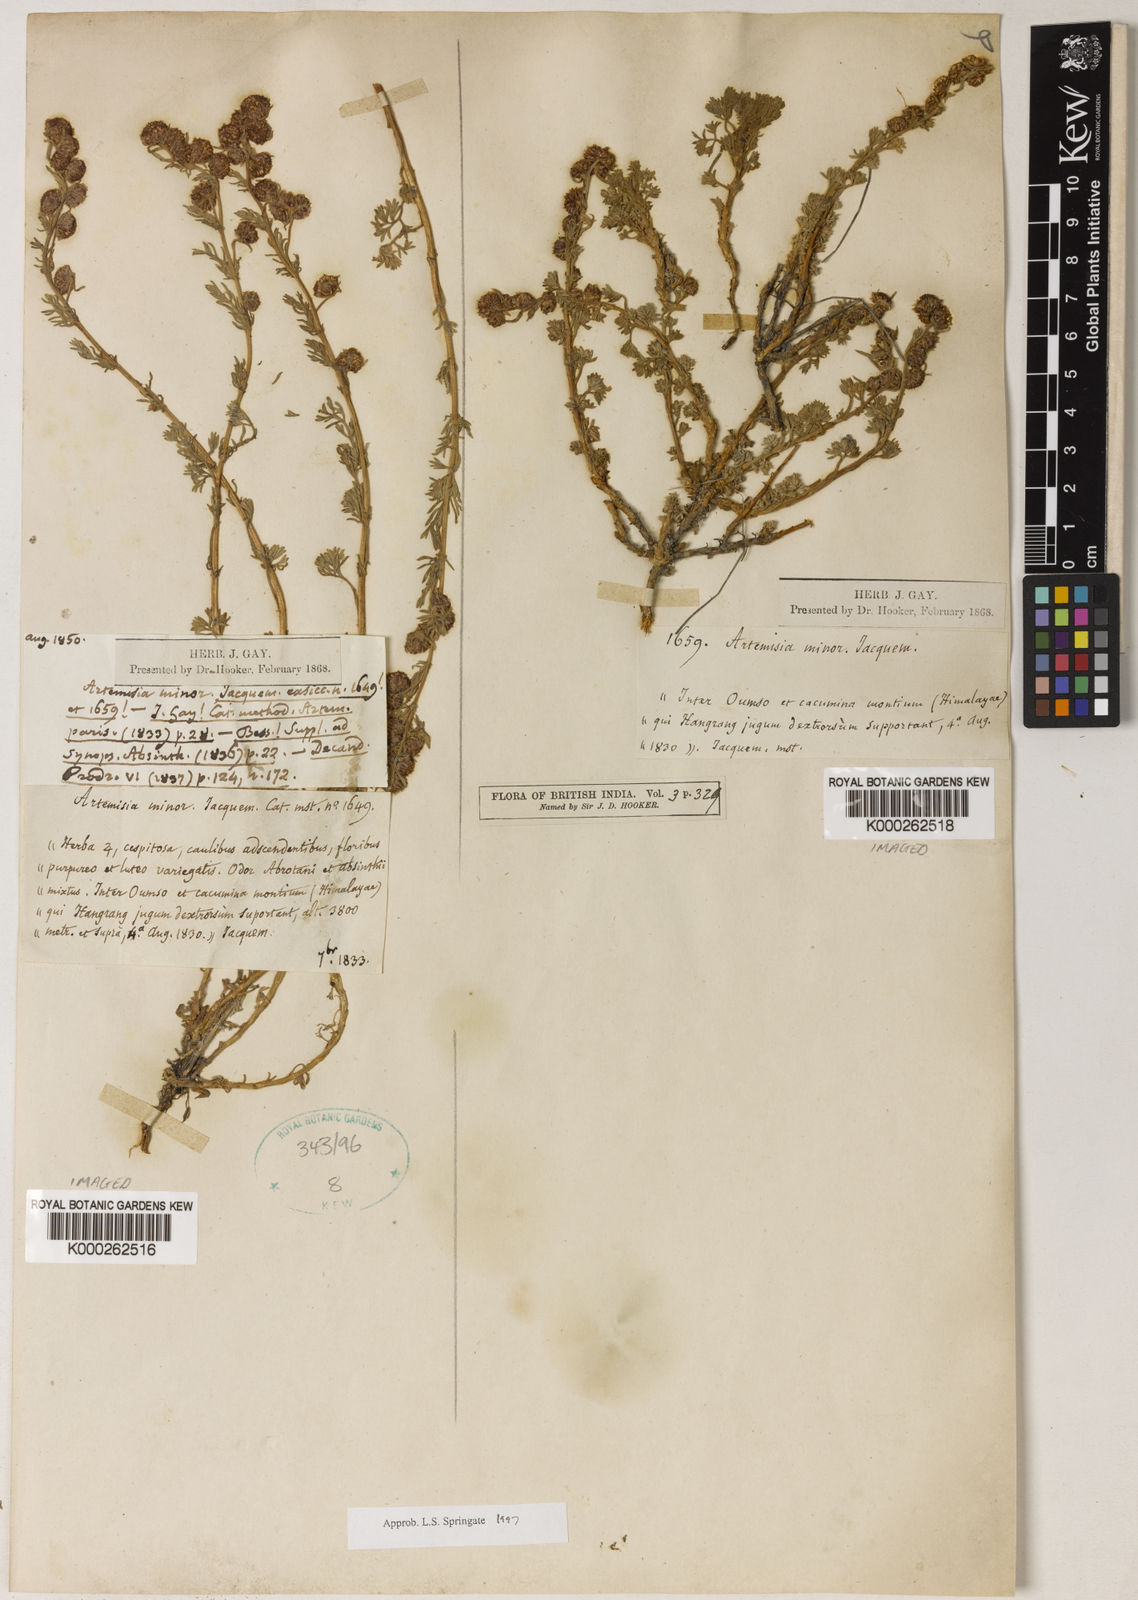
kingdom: Plantae
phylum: Tracheophyta
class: Magnoliopsida
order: Asterales
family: Asteraceae
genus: Artemisia
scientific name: Artemisia minor
